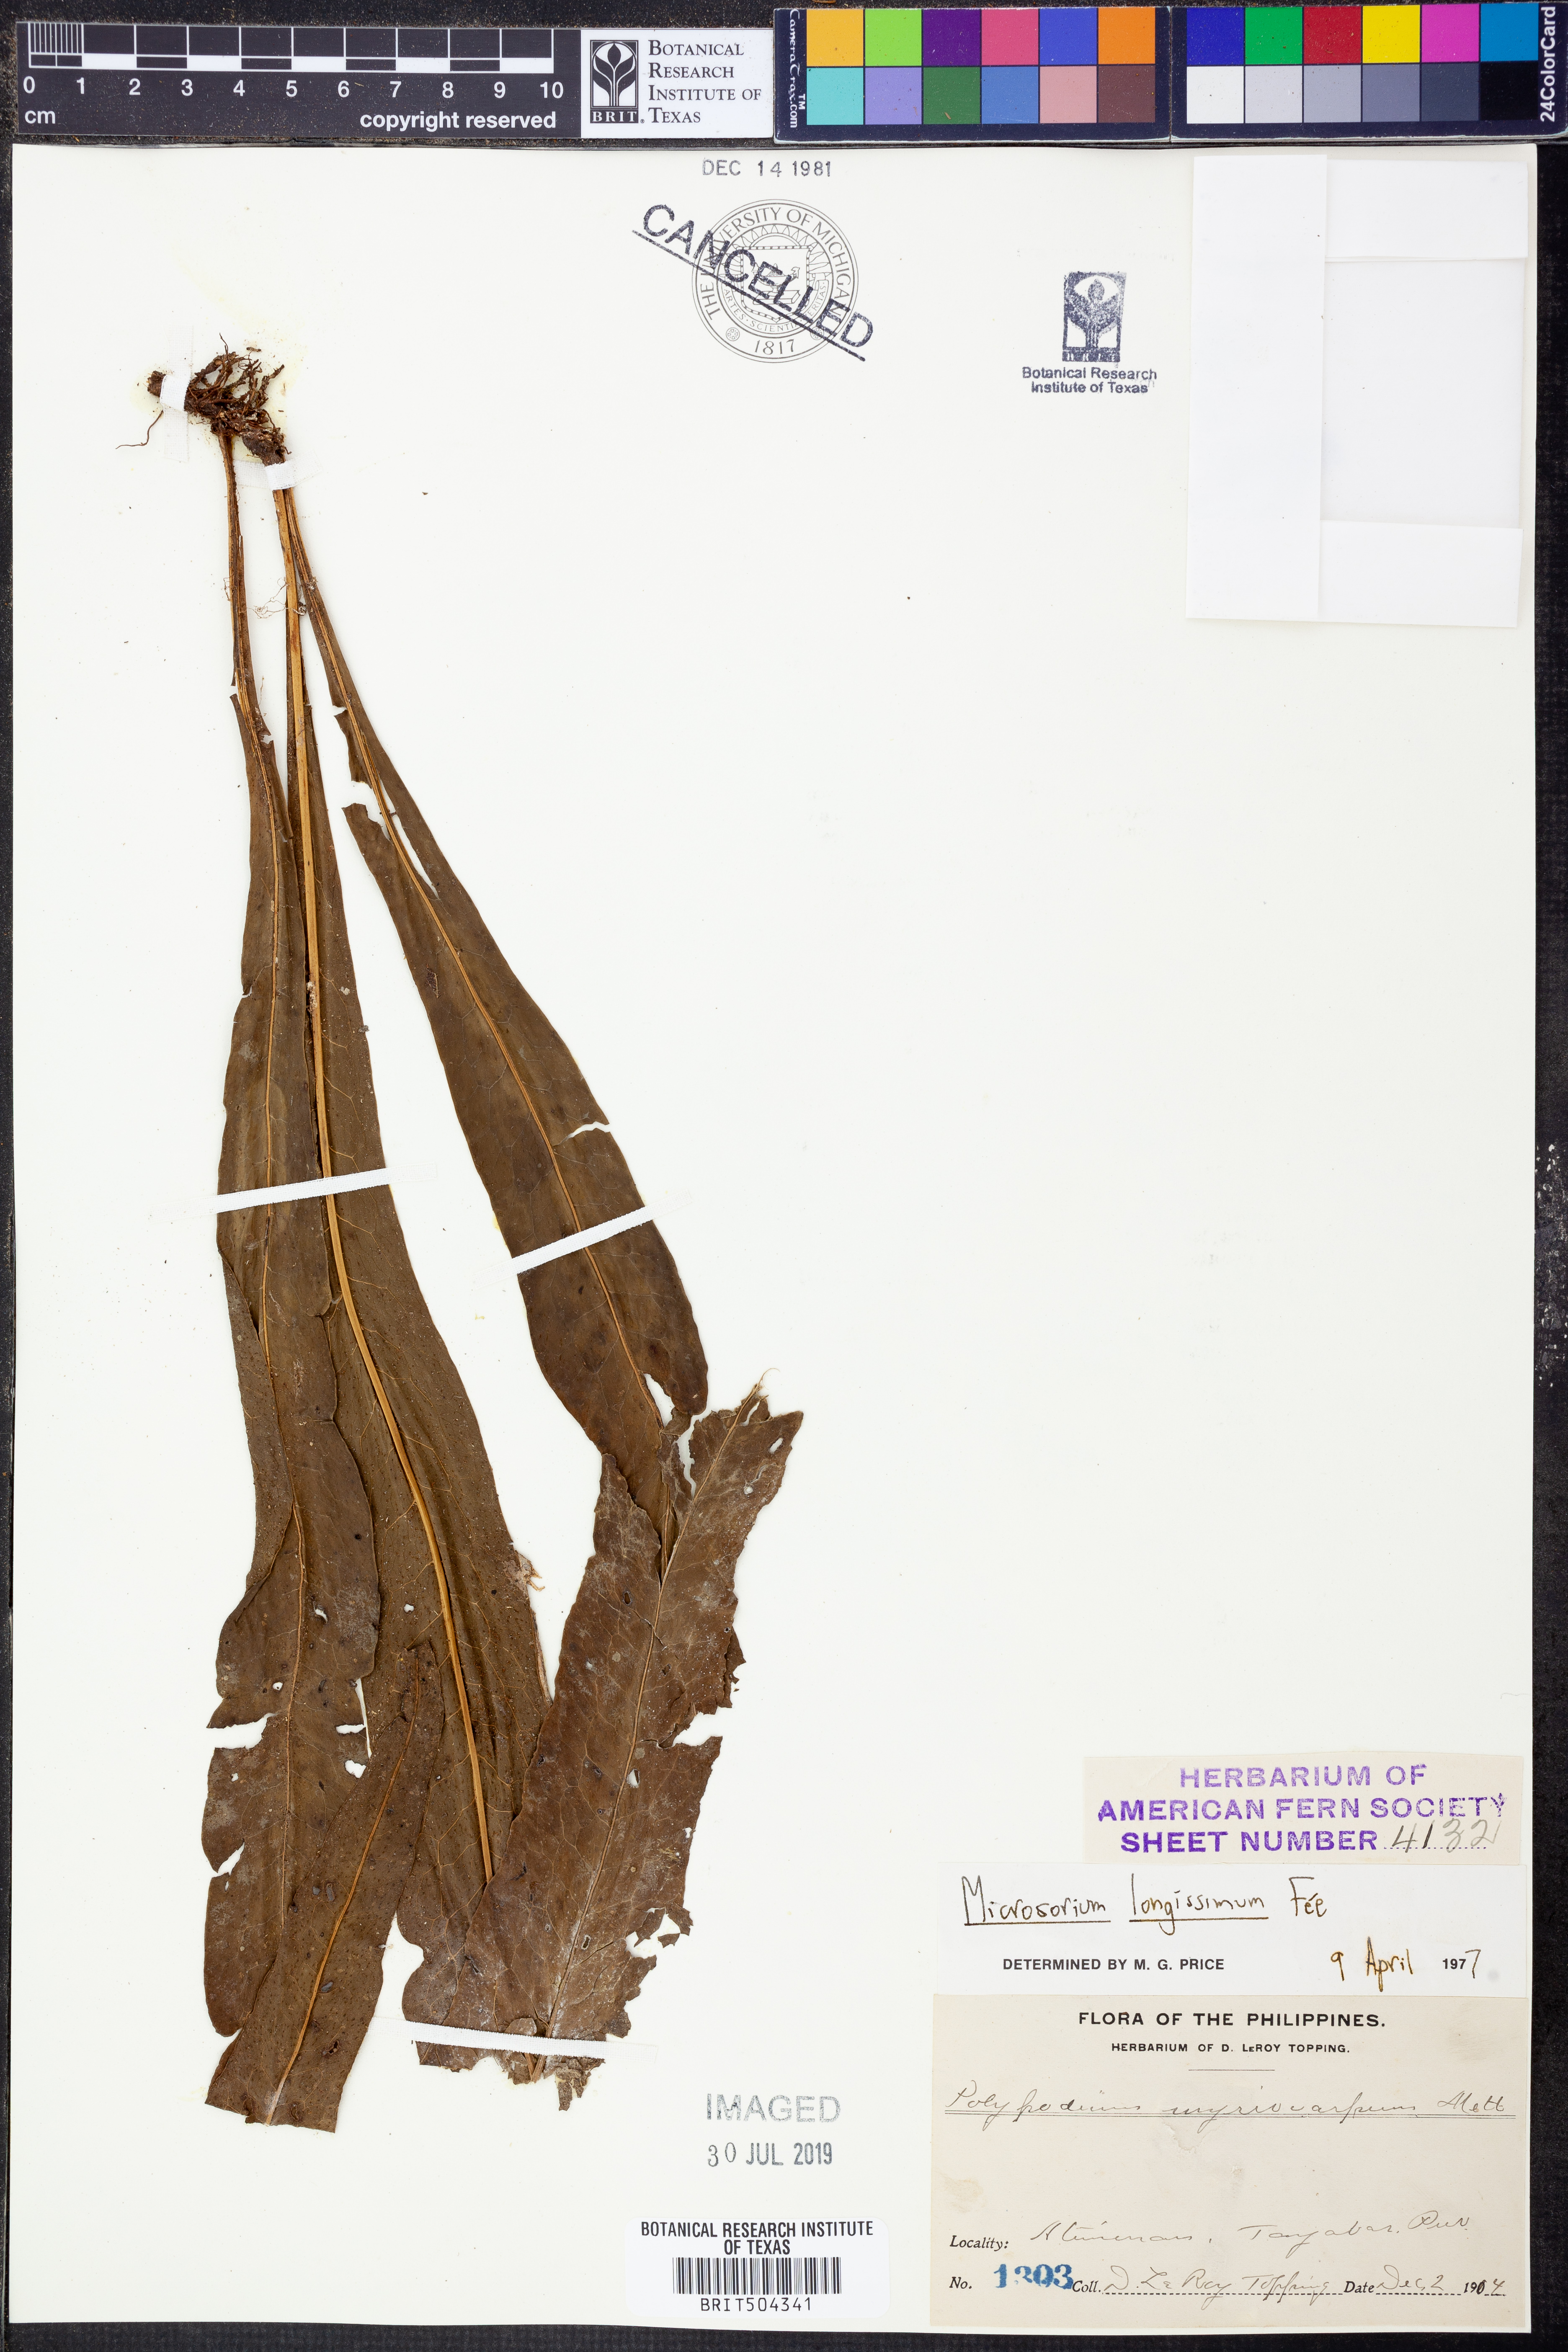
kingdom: Plantae
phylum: Tracheophyta
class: Polypodiopsida
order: Polypodiales
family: Polypodiaceae
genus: Microsorum
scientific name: Microsorum longissimum
